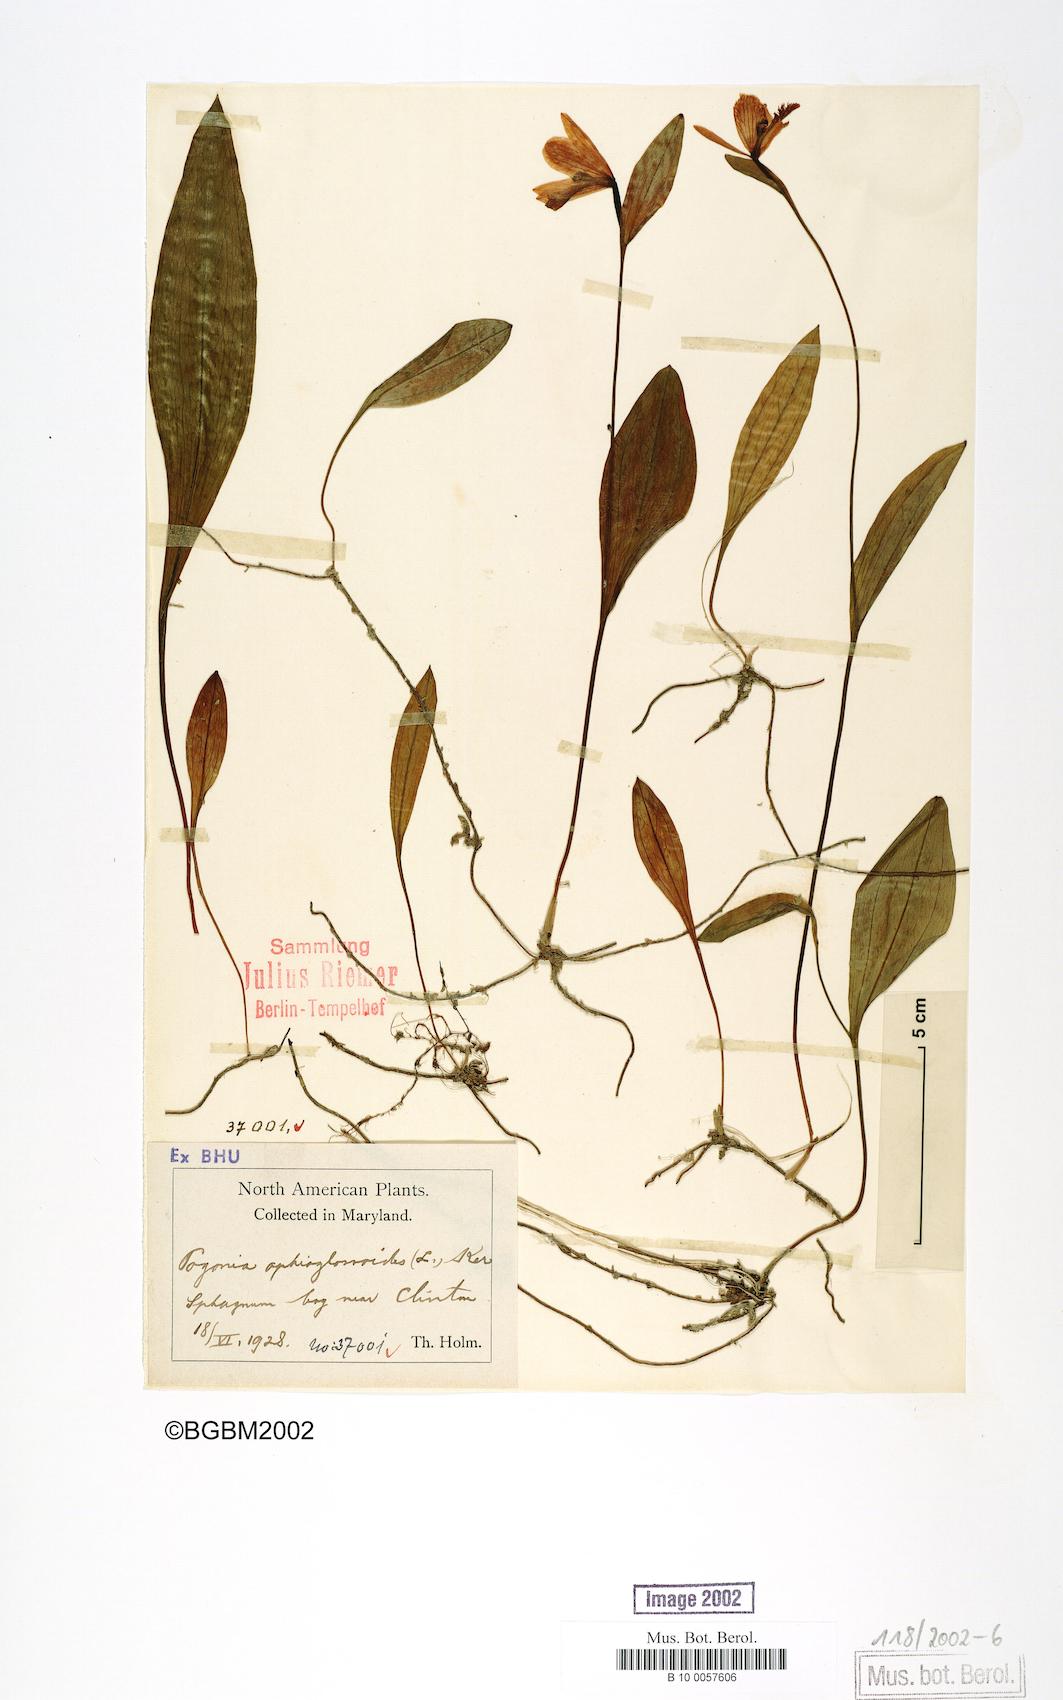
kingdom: Plantae
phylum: Tracheophyta
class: Liliopsida
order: Asparagales
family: Orchidaceae
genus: Pogonia
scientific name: Pogonia ophioglossoides
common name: Rose pogonia
